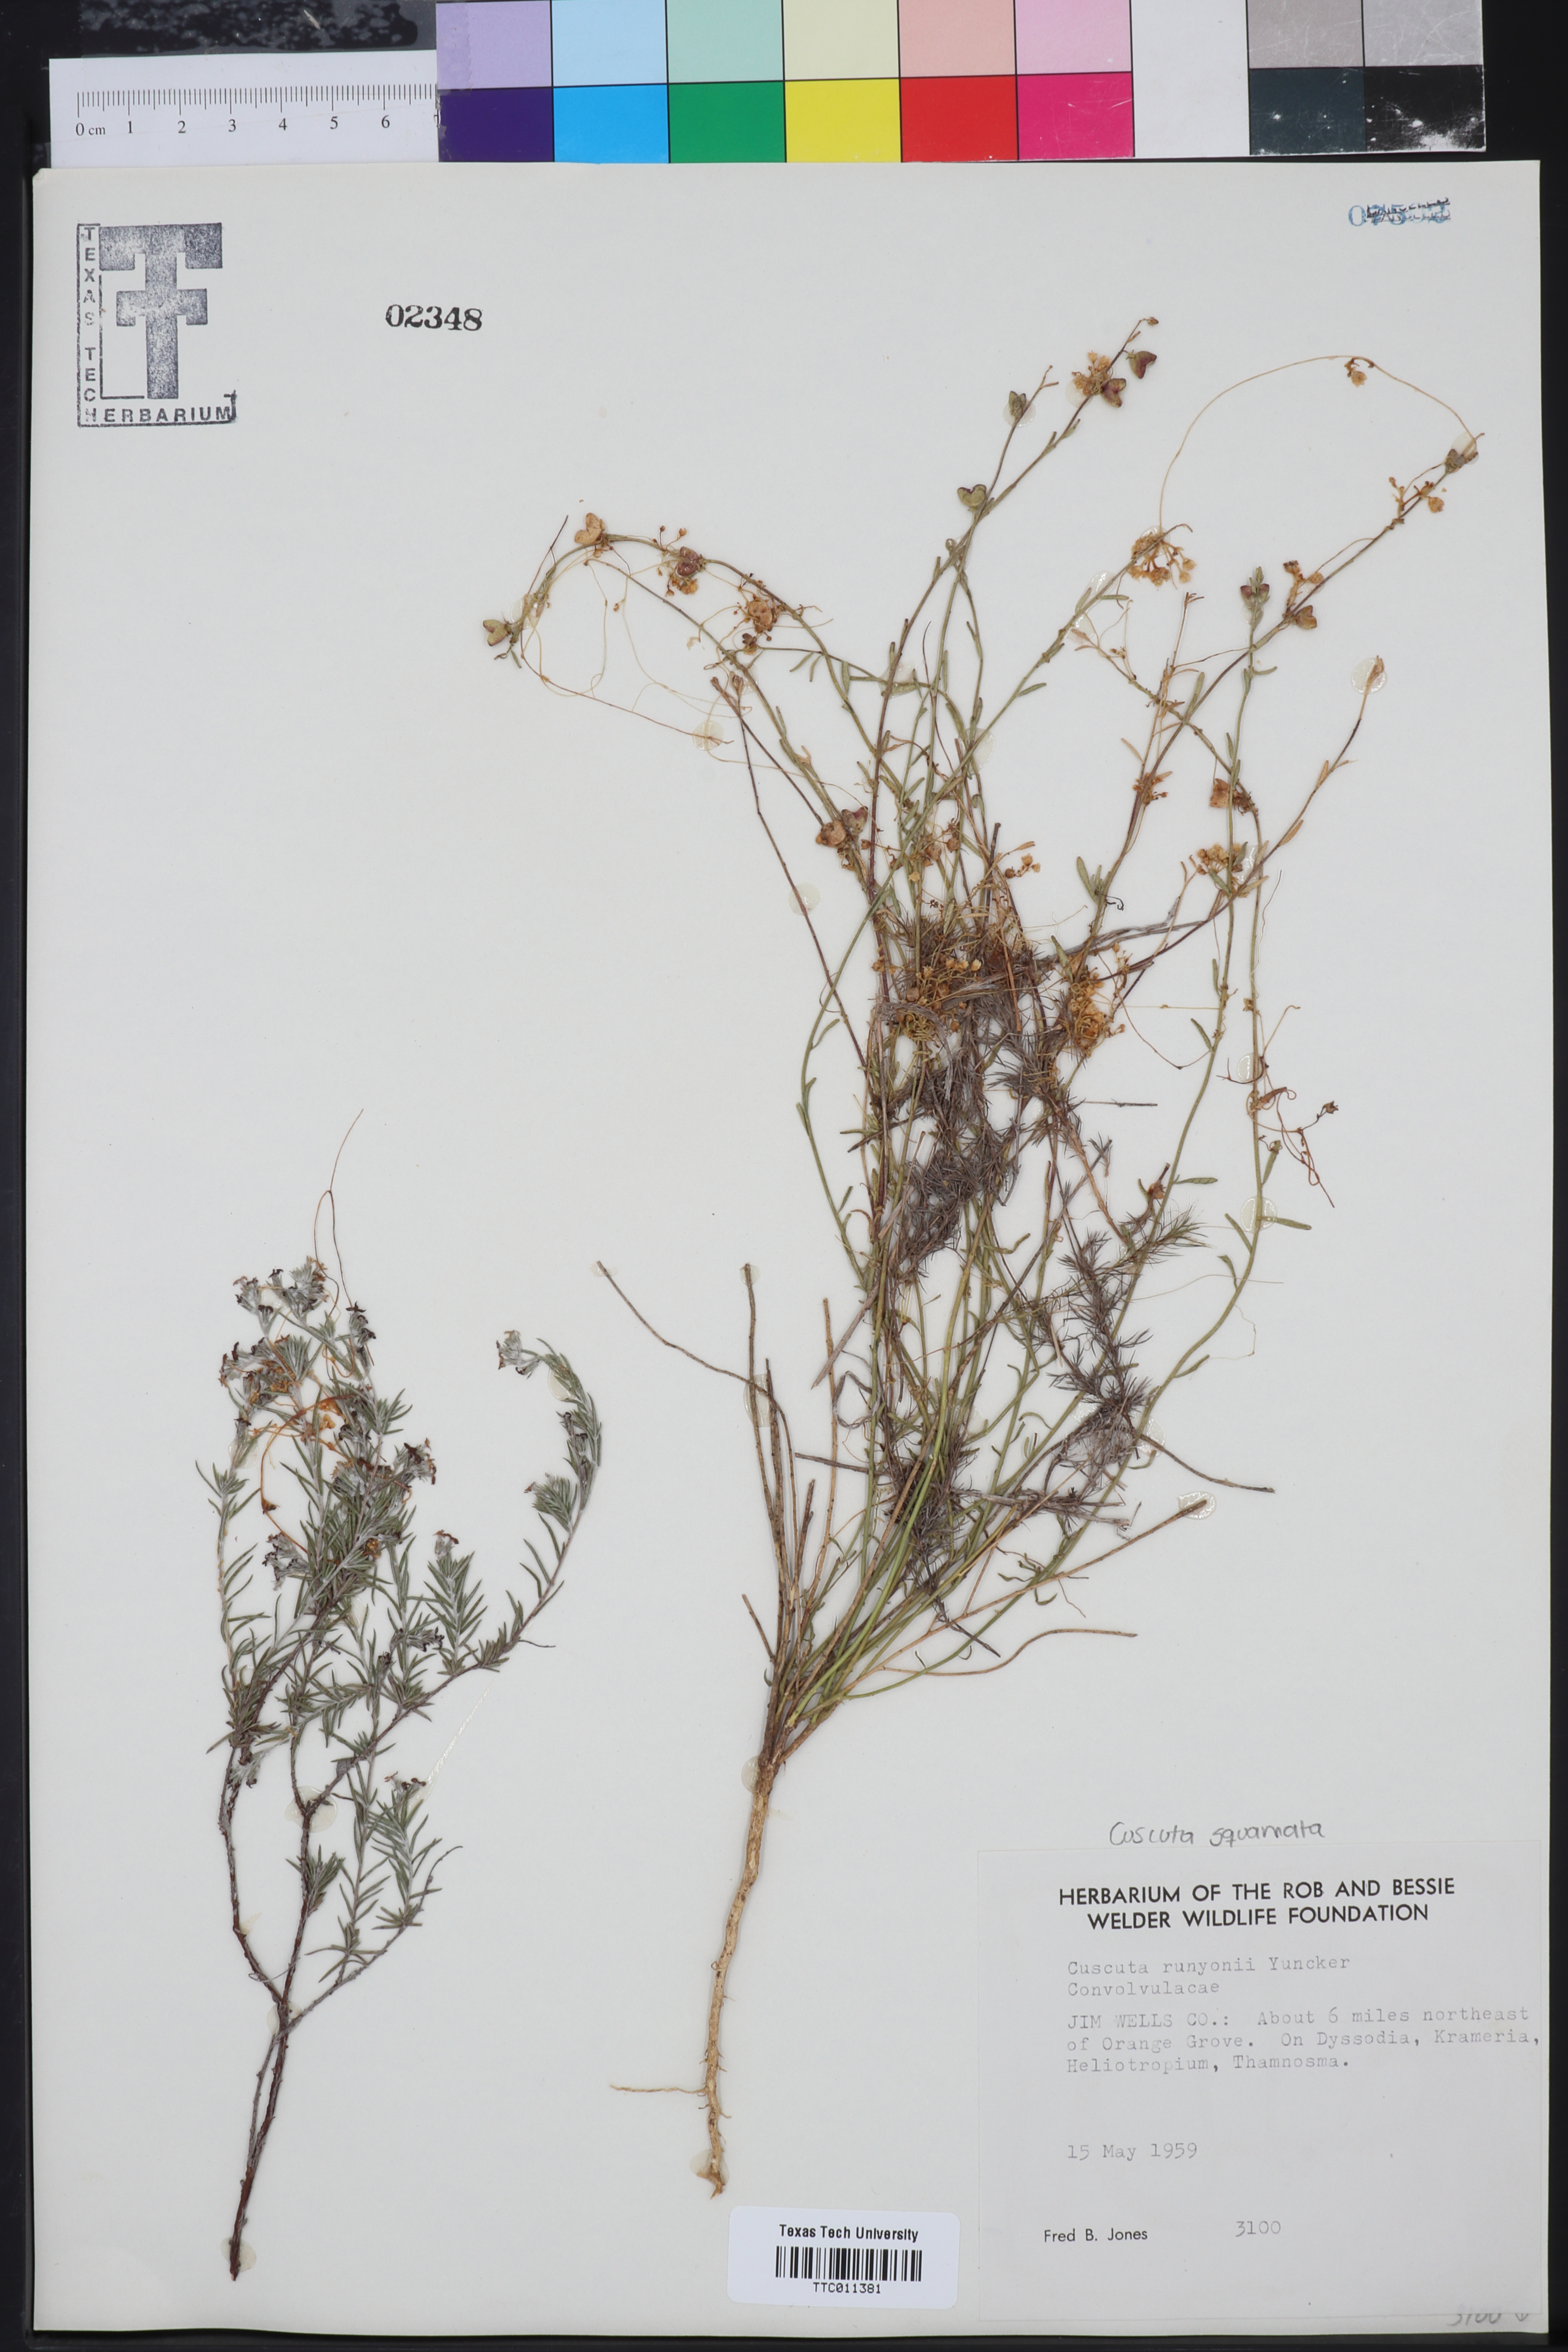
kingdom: Plantae
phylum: Tracheophyta
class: Magnoliopsida
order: Solanales
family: Convolvulaceae
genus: Cuscuta
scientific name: Cuscuta runyonii
